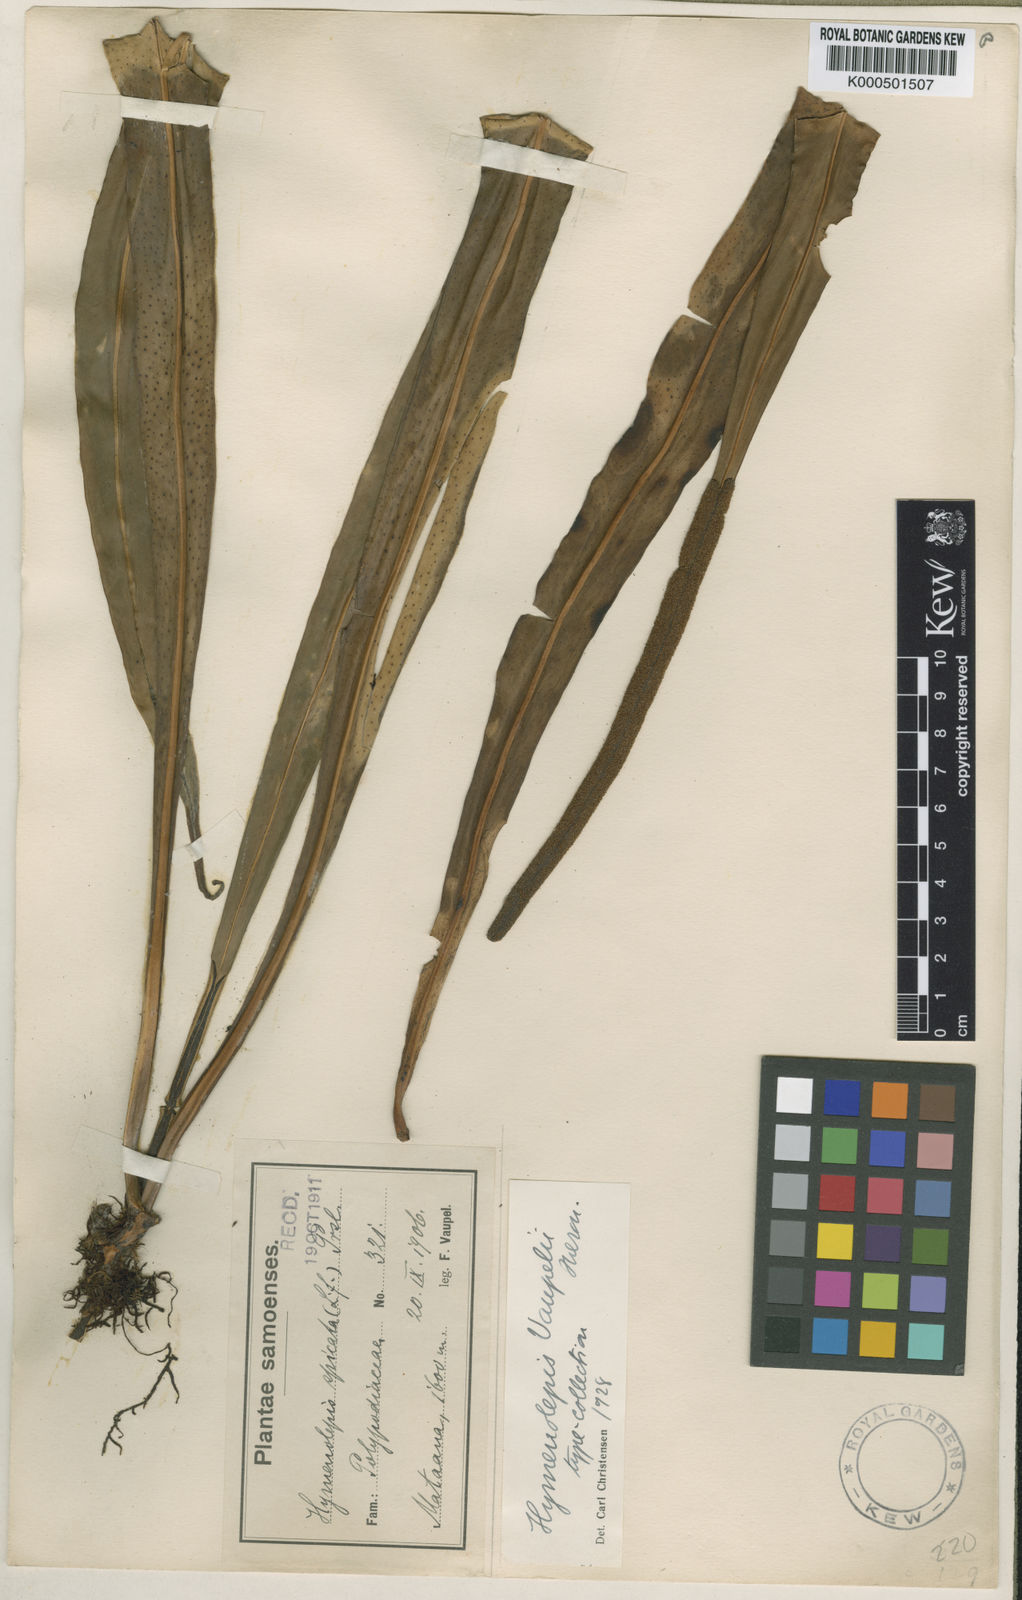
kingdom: Plantae
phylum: Tracheophyta
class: Polypodiopsida
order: Polypodiales
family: Polypodiaceae
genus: Lepisorus
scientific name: Lepisorus mucronatus
